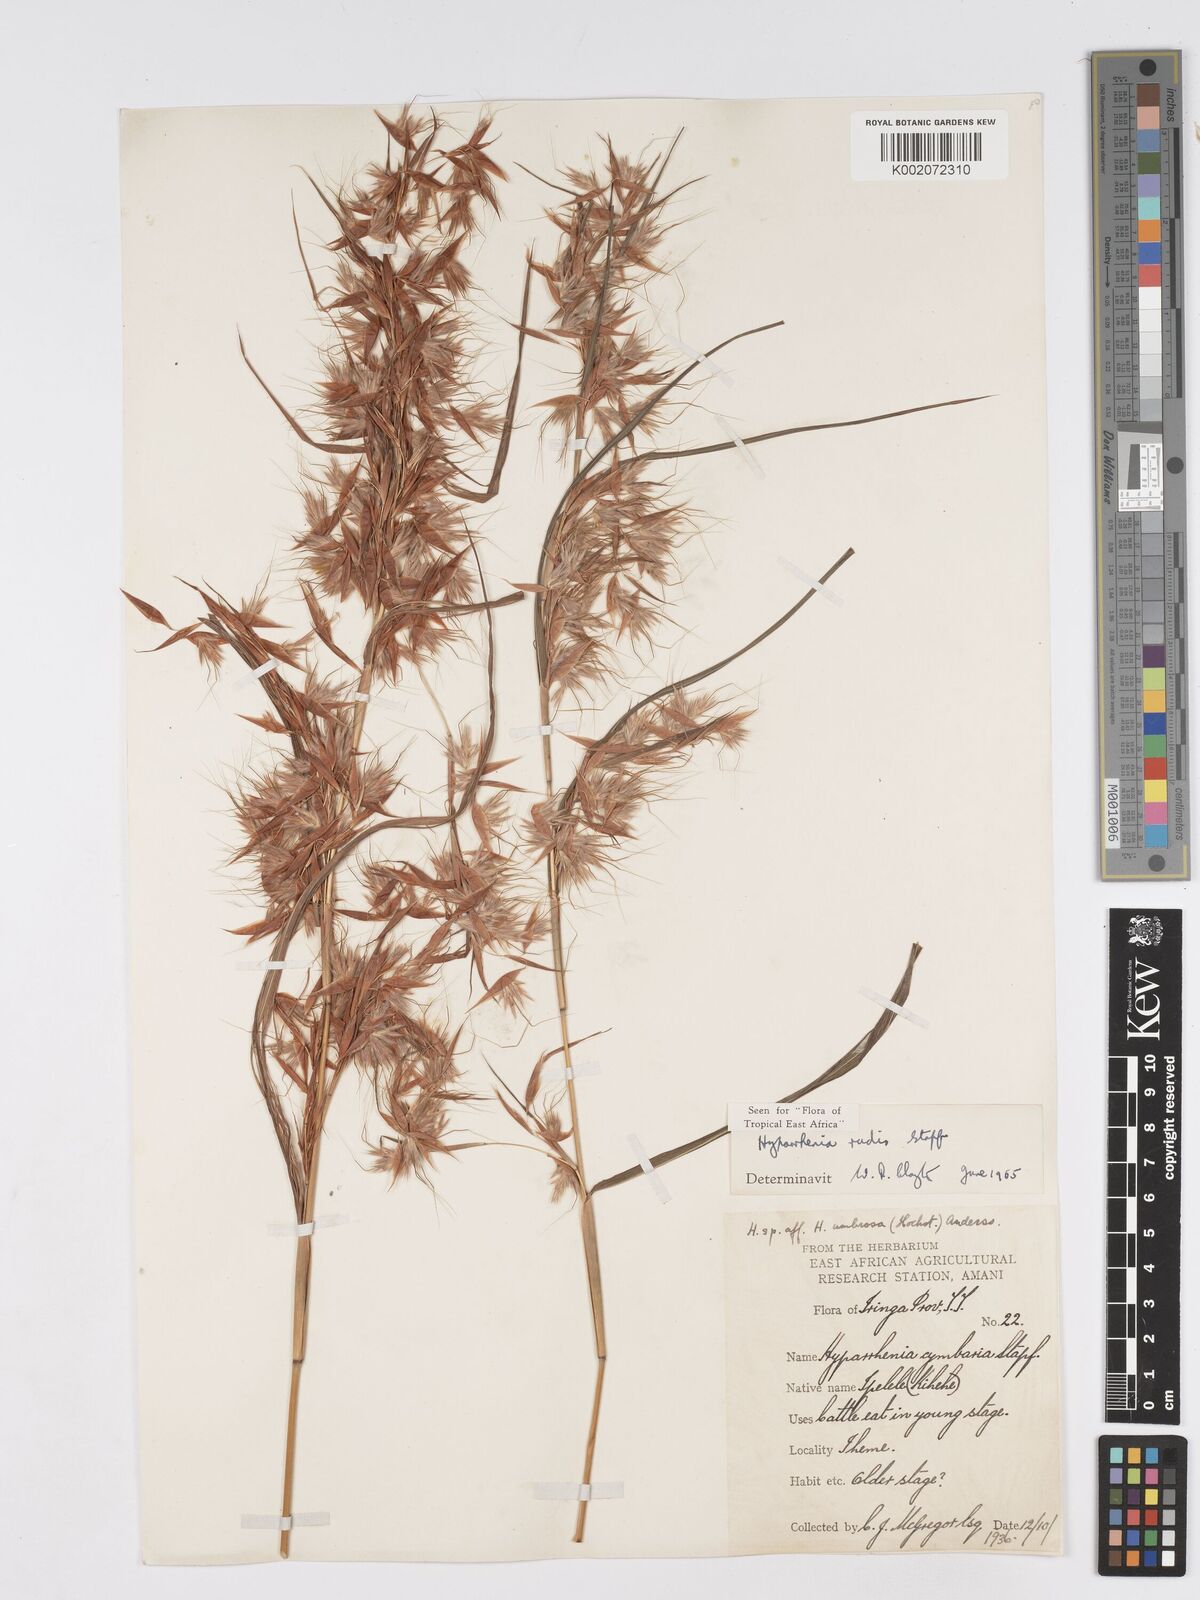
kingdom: Plantae
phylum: Tracheophyta
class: Liliopsida
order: Poales
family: Poaceae
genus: Hyparrhenia
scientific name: Hyparrhenia rudis
